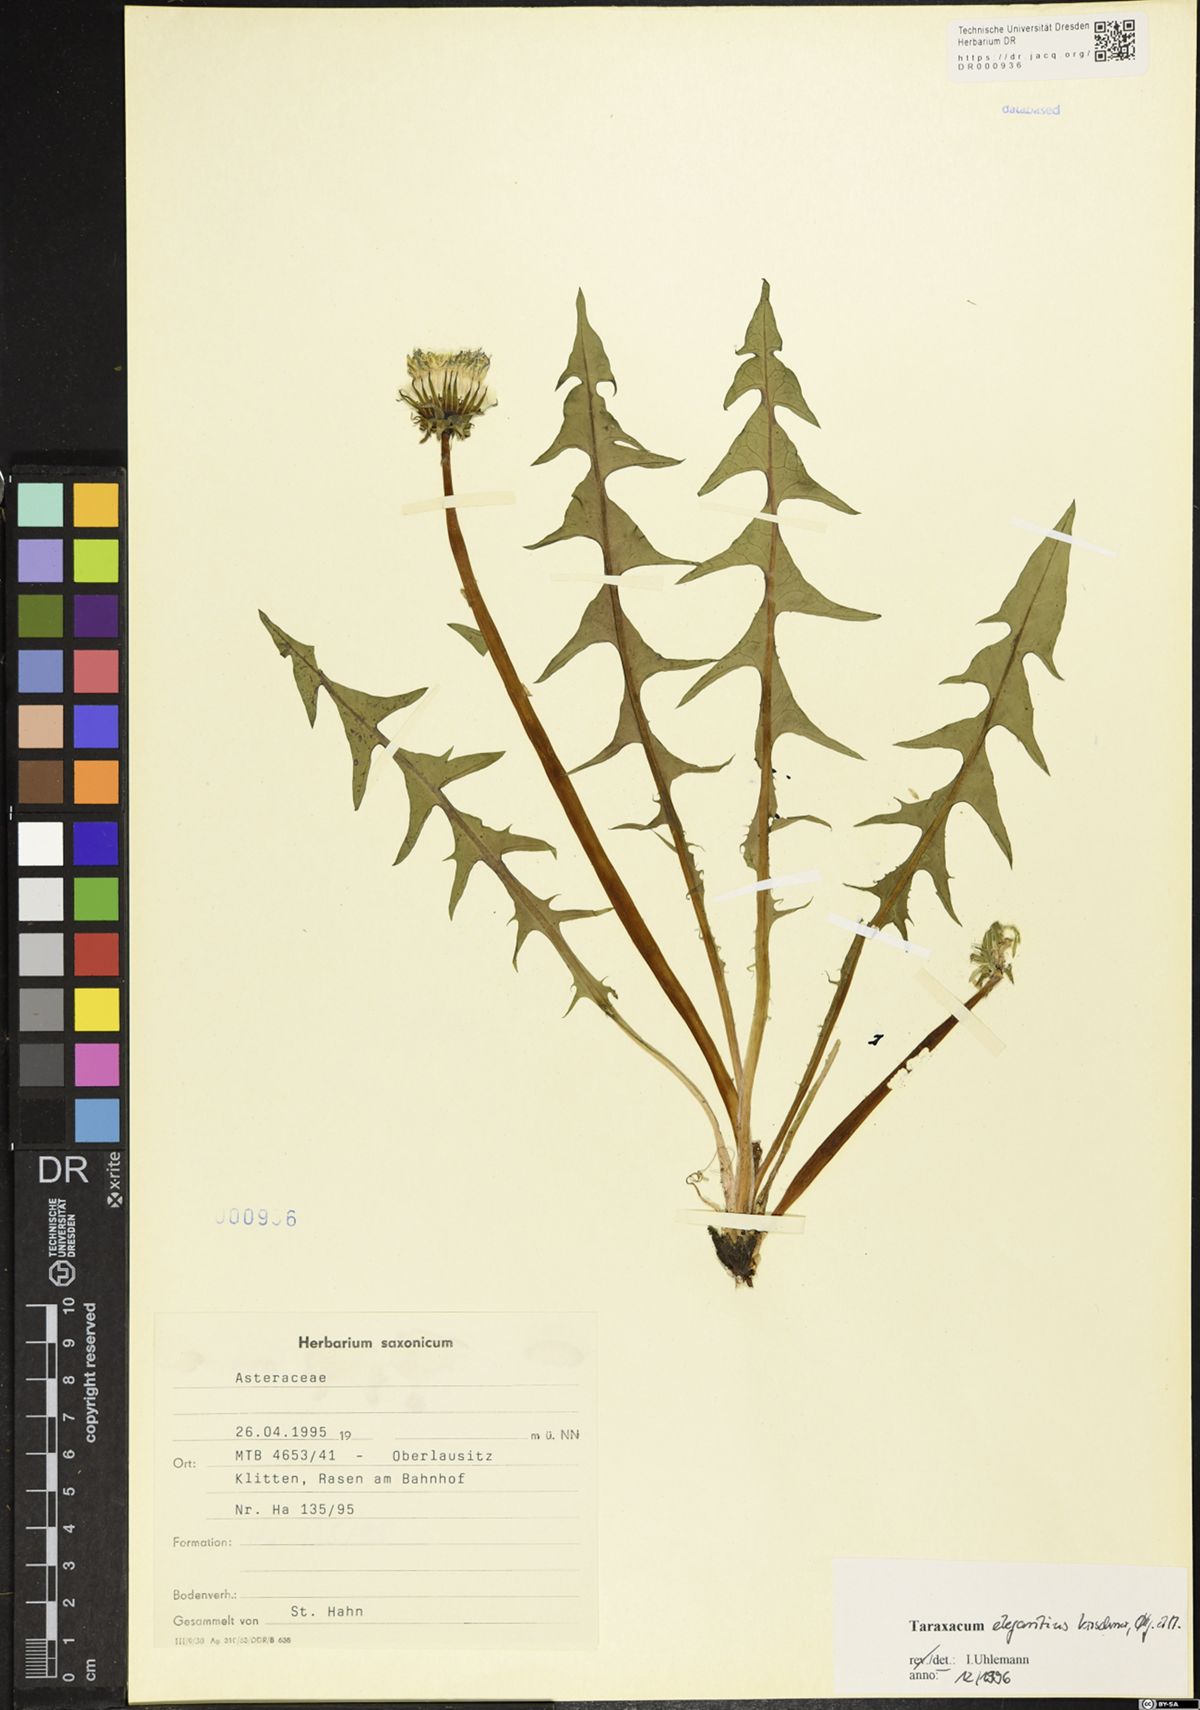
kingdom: Plantae
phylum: Tracheophyta
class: Magnoliopsida
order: Asterales
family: Asteraceae
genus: Taraxacum
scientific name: Taraxacum elegantius
